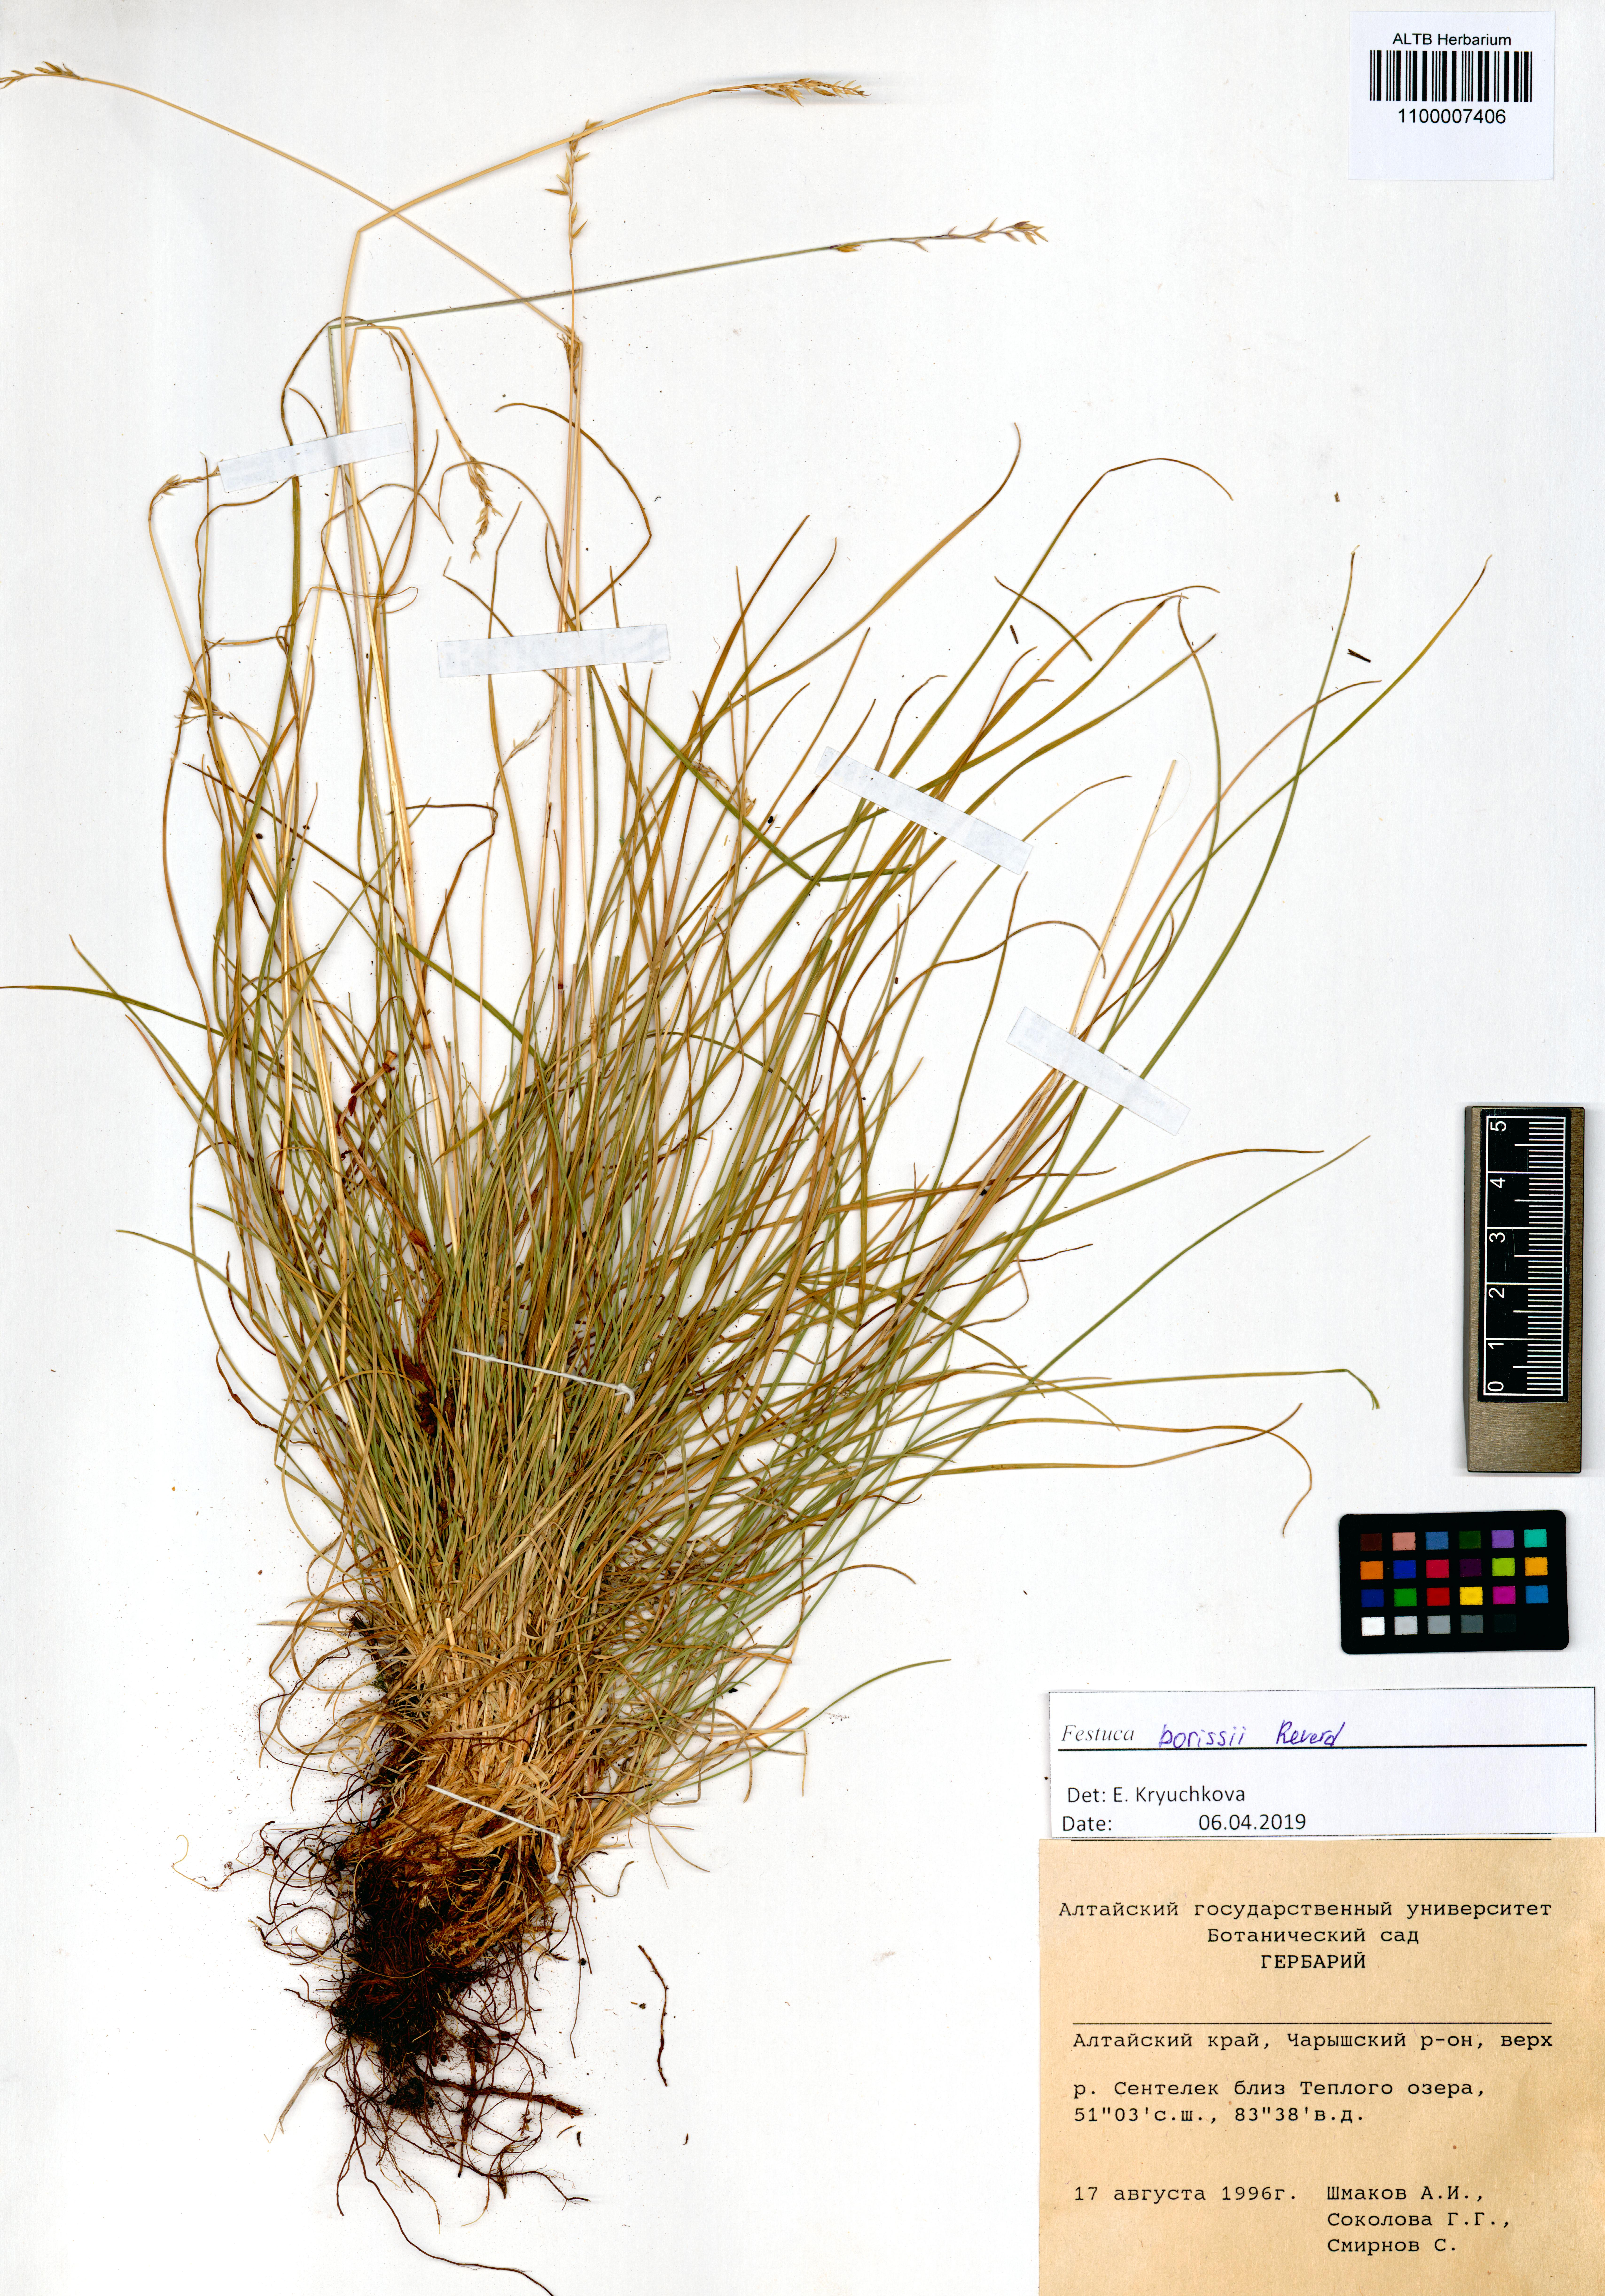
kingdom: Plantae
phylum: Tracheophyta
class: Liliopsida
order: Poales
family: Poaceae
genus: Festuca
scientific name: Festuca borissii
